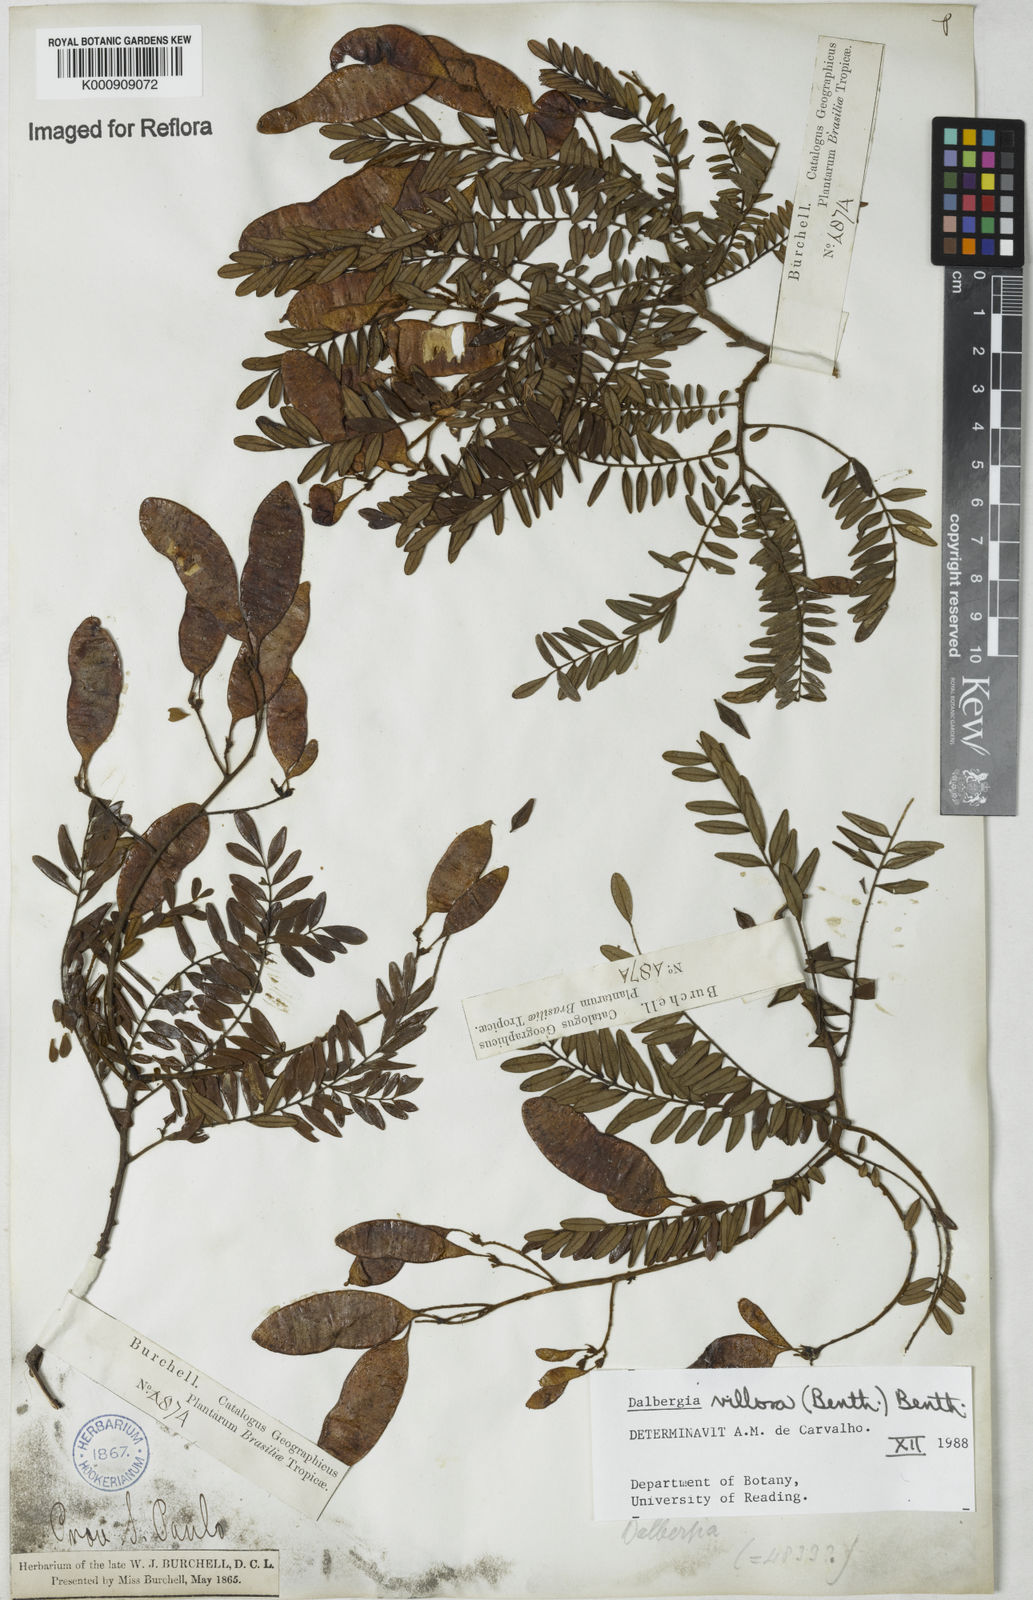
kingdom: Plantae
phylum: Tracheophyta
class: Magnoliopsida
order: Fabales
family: Fabaceae
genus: Dalbergia
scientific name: Dalbergia villosa
